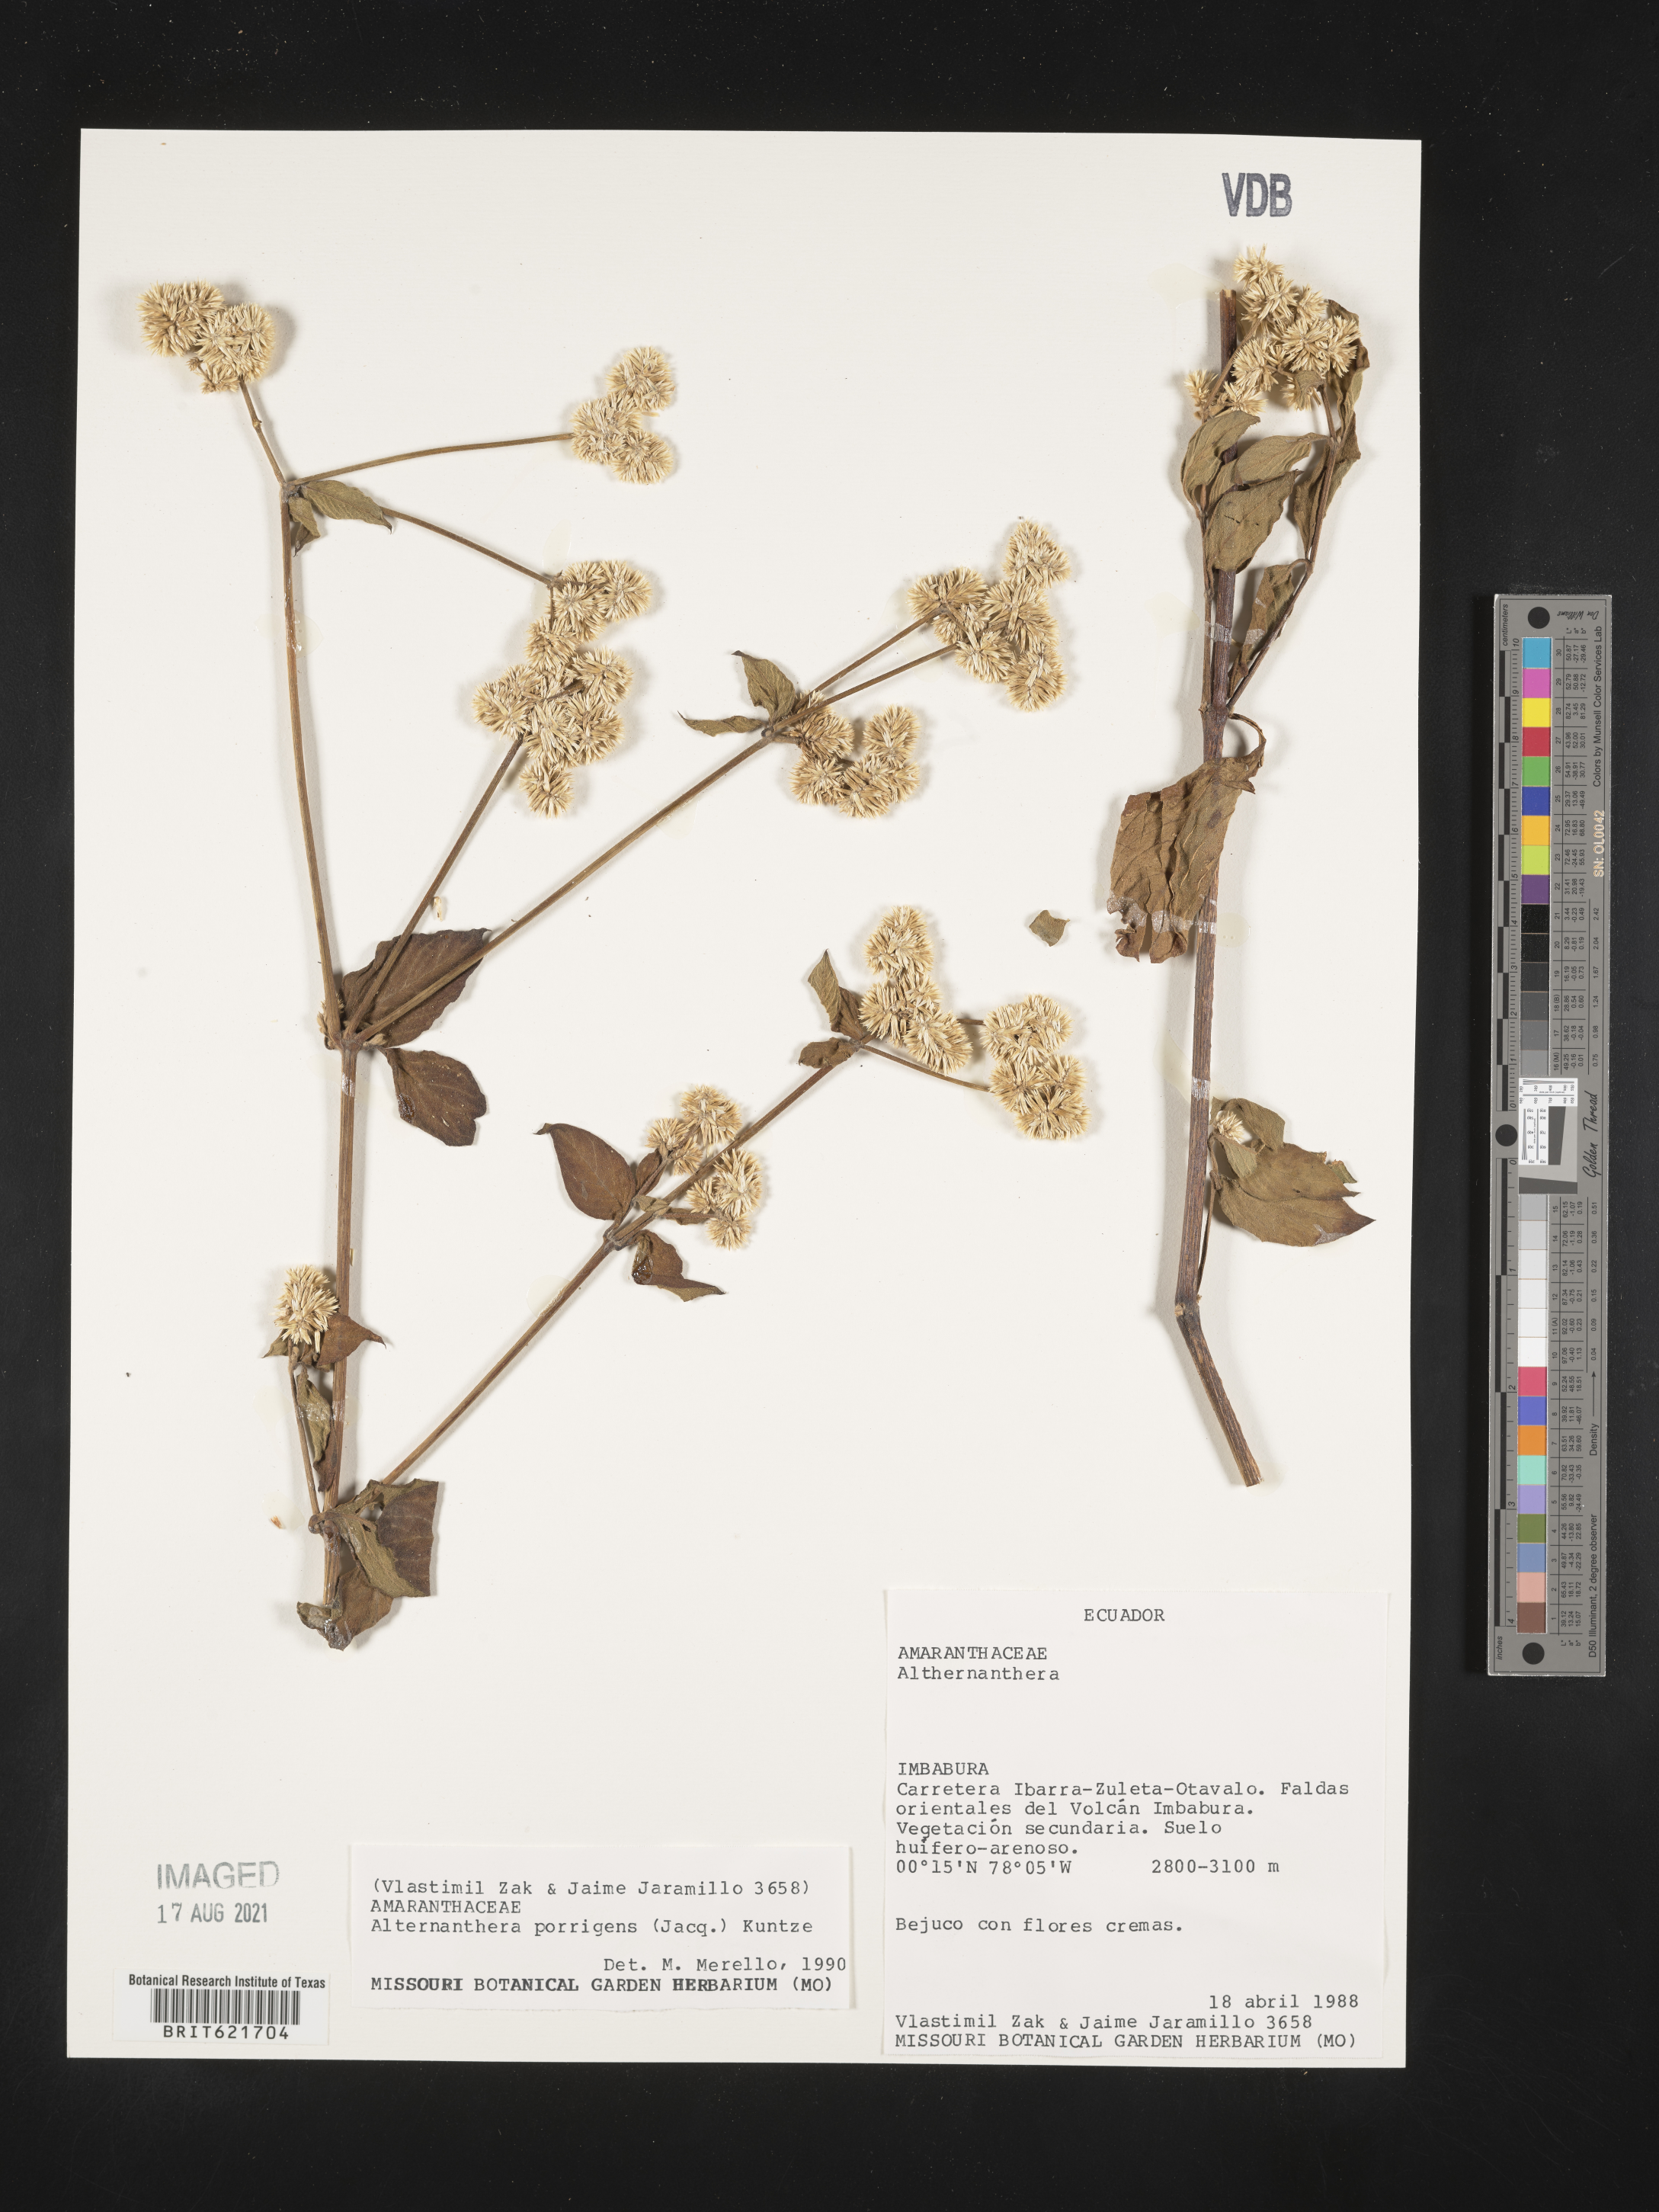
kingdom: Plantae
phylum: Tracheophyta
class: Magnoliopsida
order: Caryophyllales
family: Amaranthaceae
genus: Alternanthera
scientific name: Alternanthera porrigens
